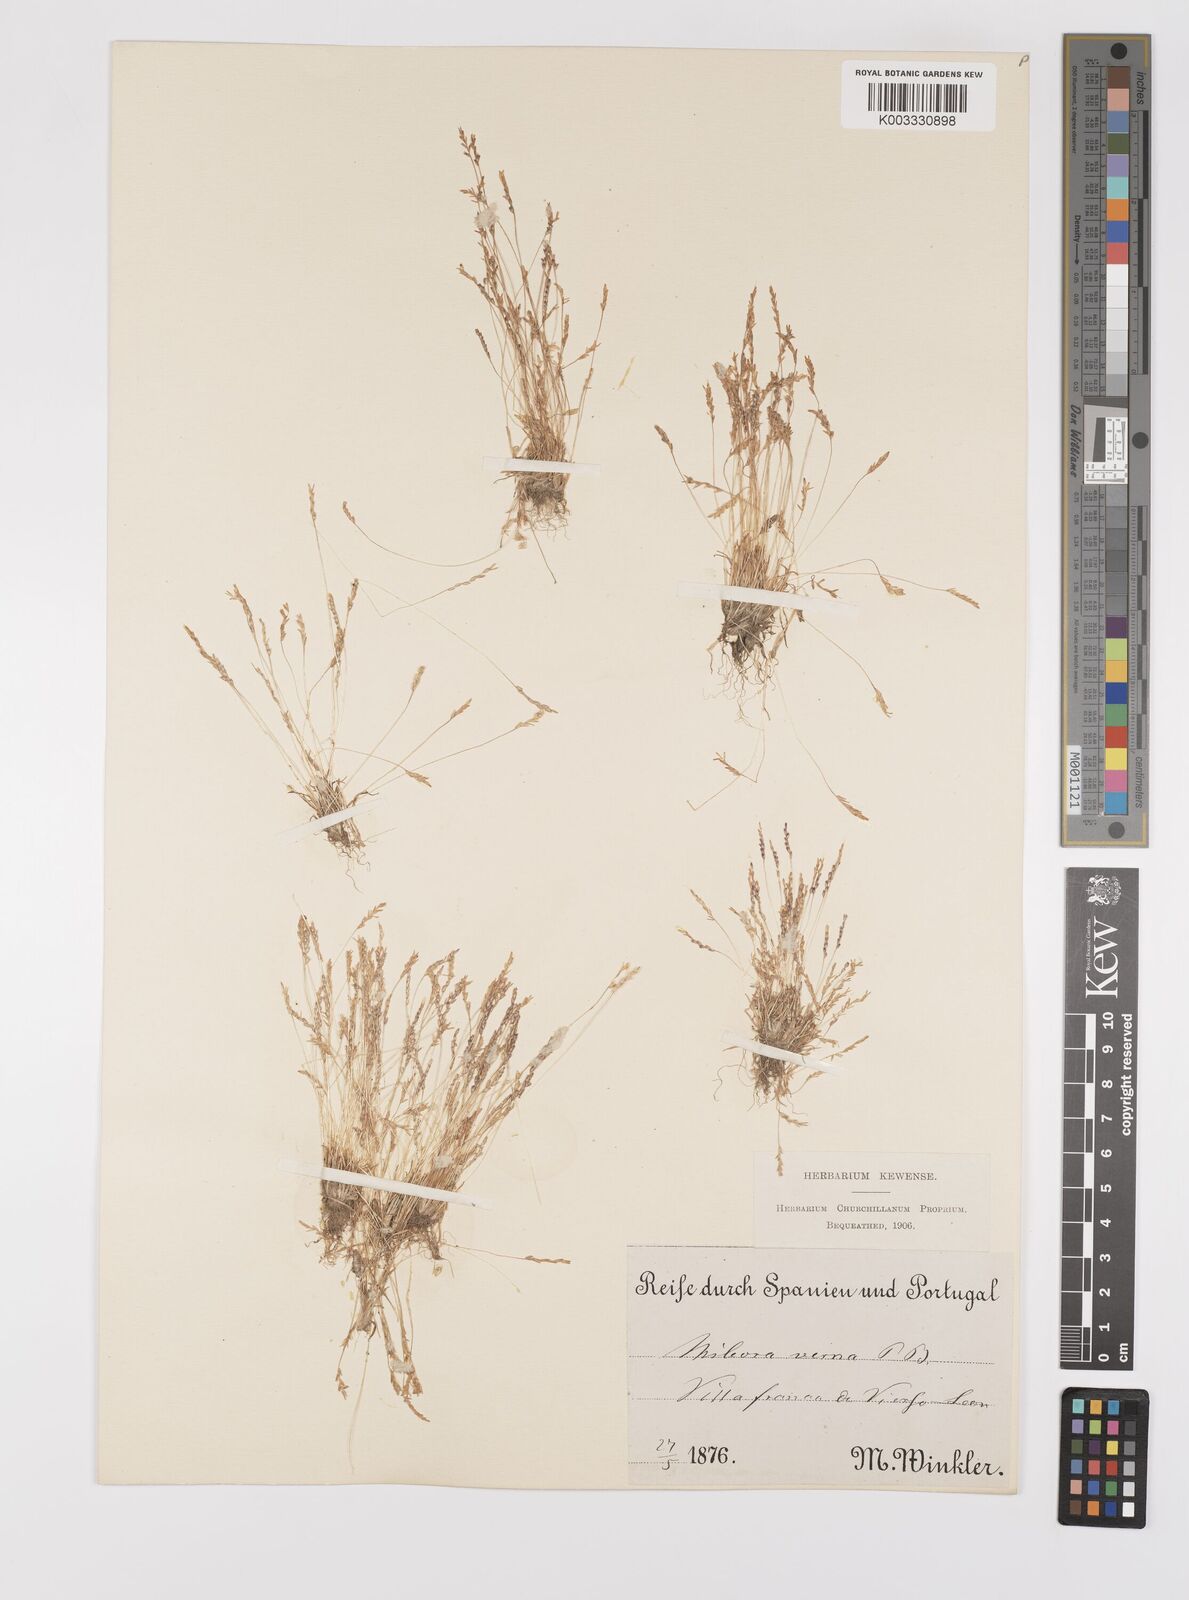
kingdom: Plantae
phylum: Tracheophyta
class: Liliopsida
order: Poales
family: Poaceae
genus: Mibora
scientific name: Mibora minima
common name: Early sand-grass
